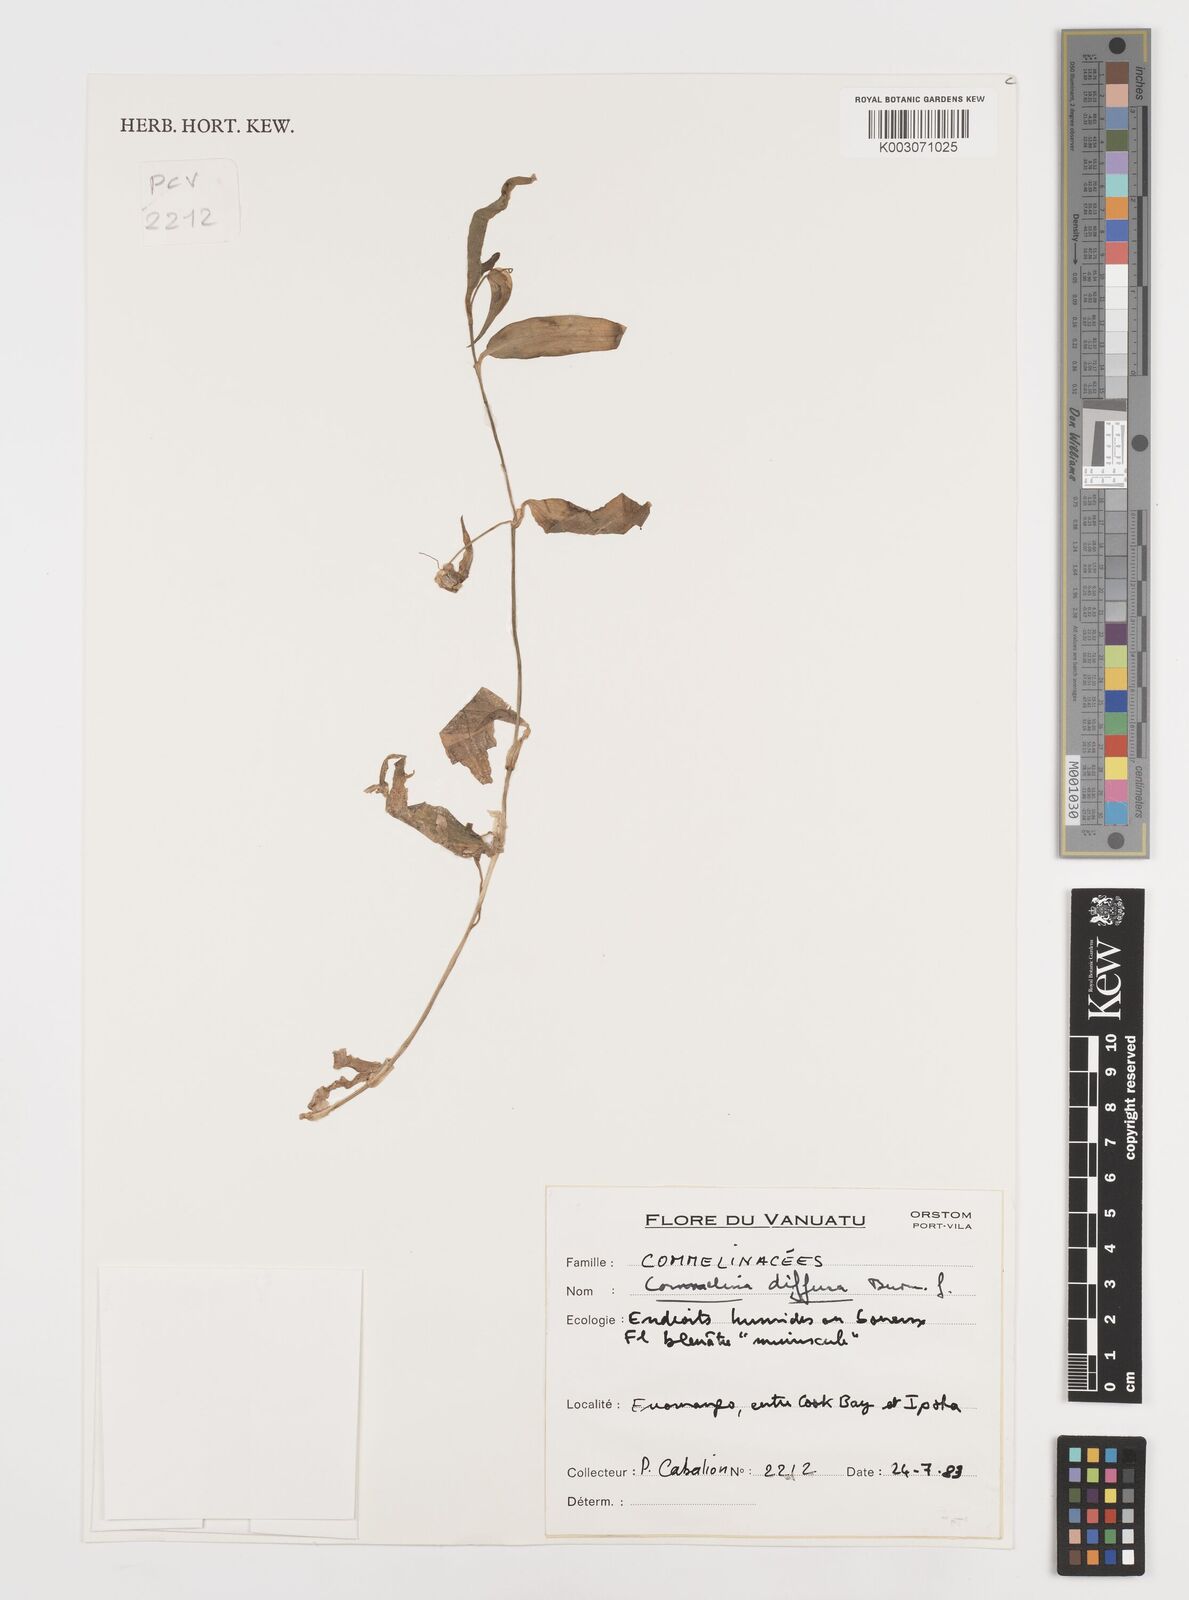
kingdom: Plantae
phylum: Tracheophyta
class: Liliopsida
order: Commelinales
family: Commelinaceae
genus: Commelina
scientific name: Commelina diffusa
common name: Climbing dayflower
